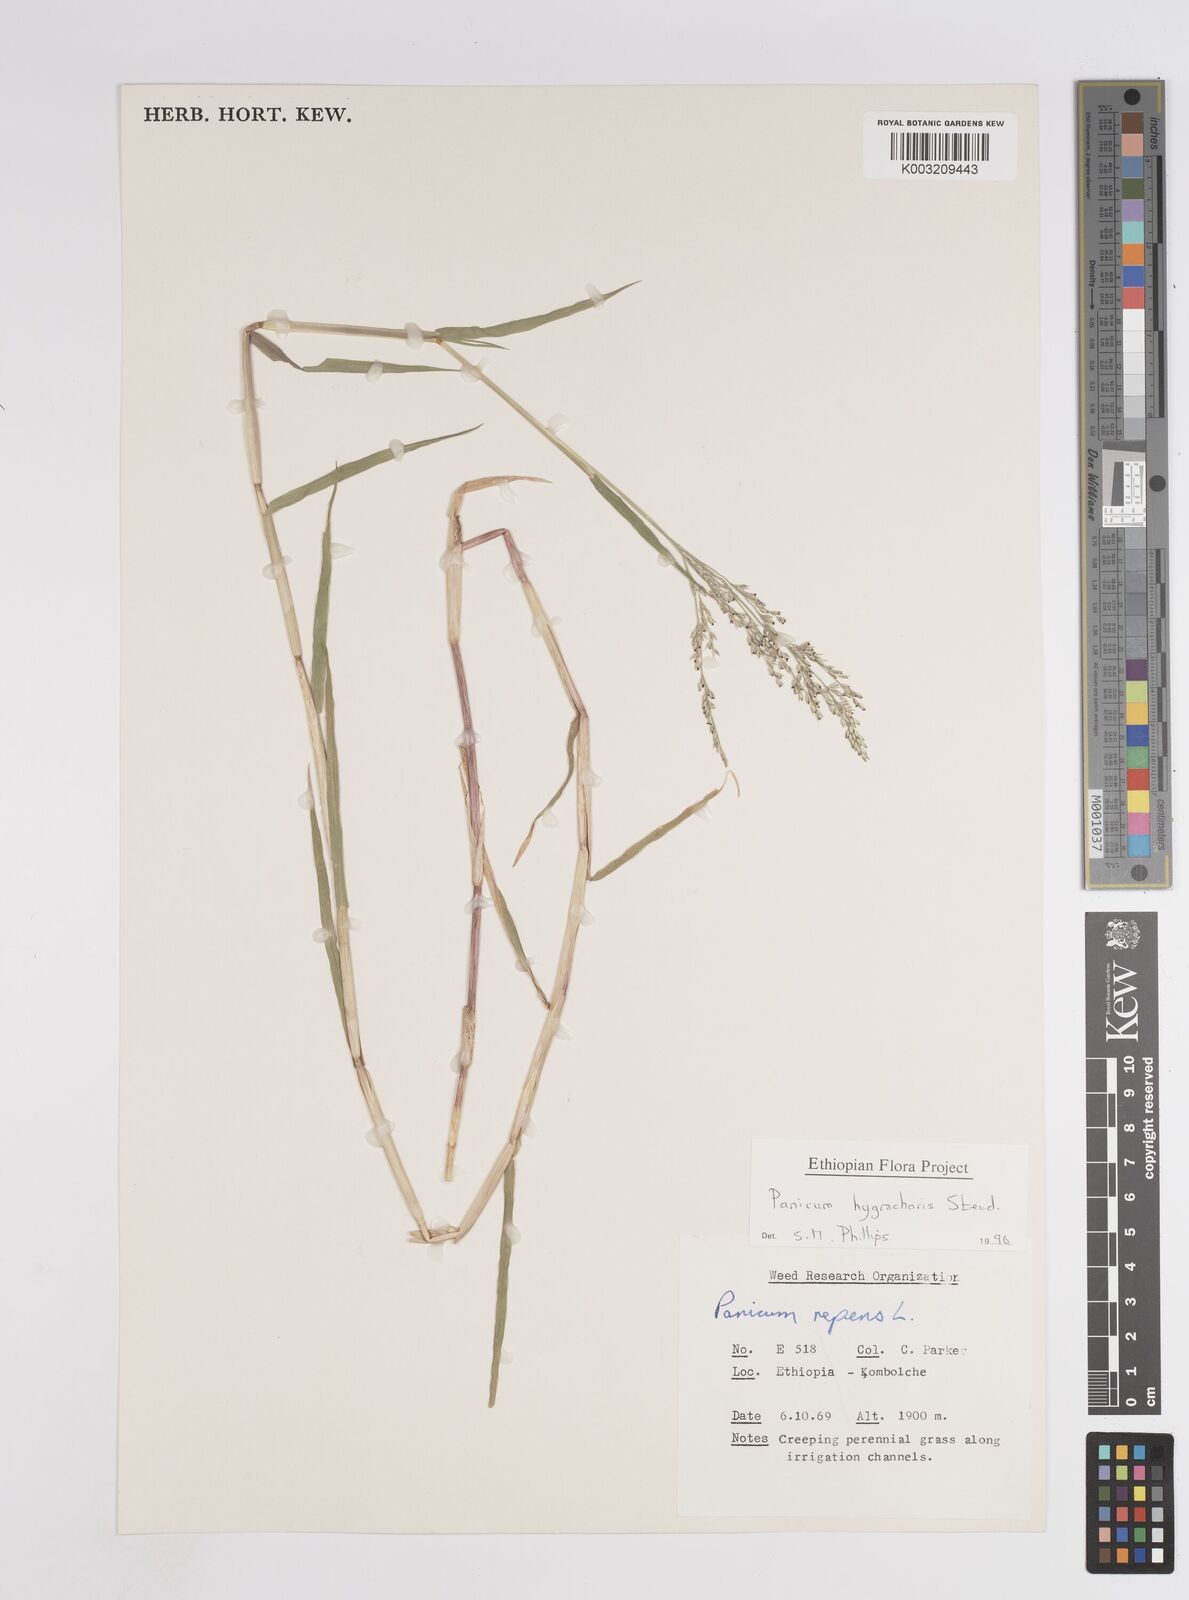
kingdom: Plantae
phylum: Tracheophyta
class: Liliopsida
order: Poales
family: Poaceae
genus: Panicum
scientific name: Panicum hygrocharis
